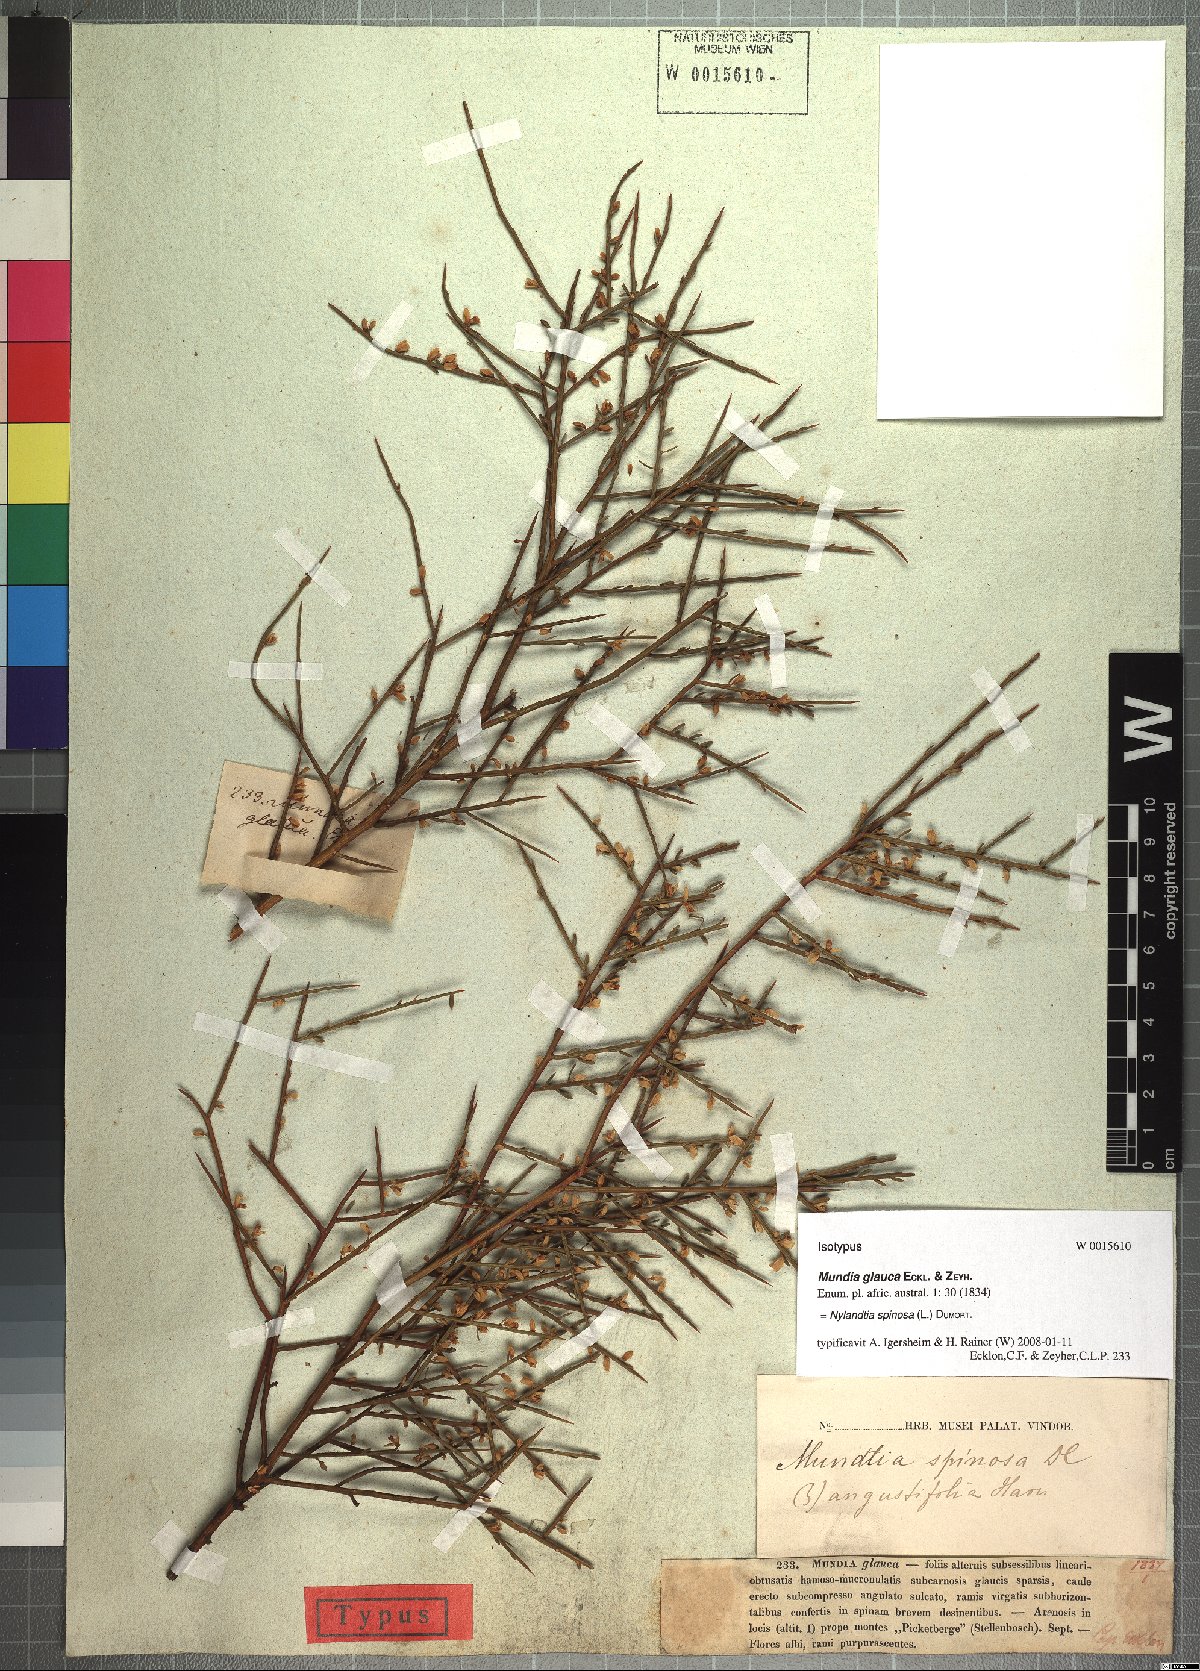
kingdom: Plantae
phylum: Tracheophyta
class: Magnoliopsida
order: Fabales
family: Polygalaceae
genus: Muraltia
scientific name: Muraltia spinosa
